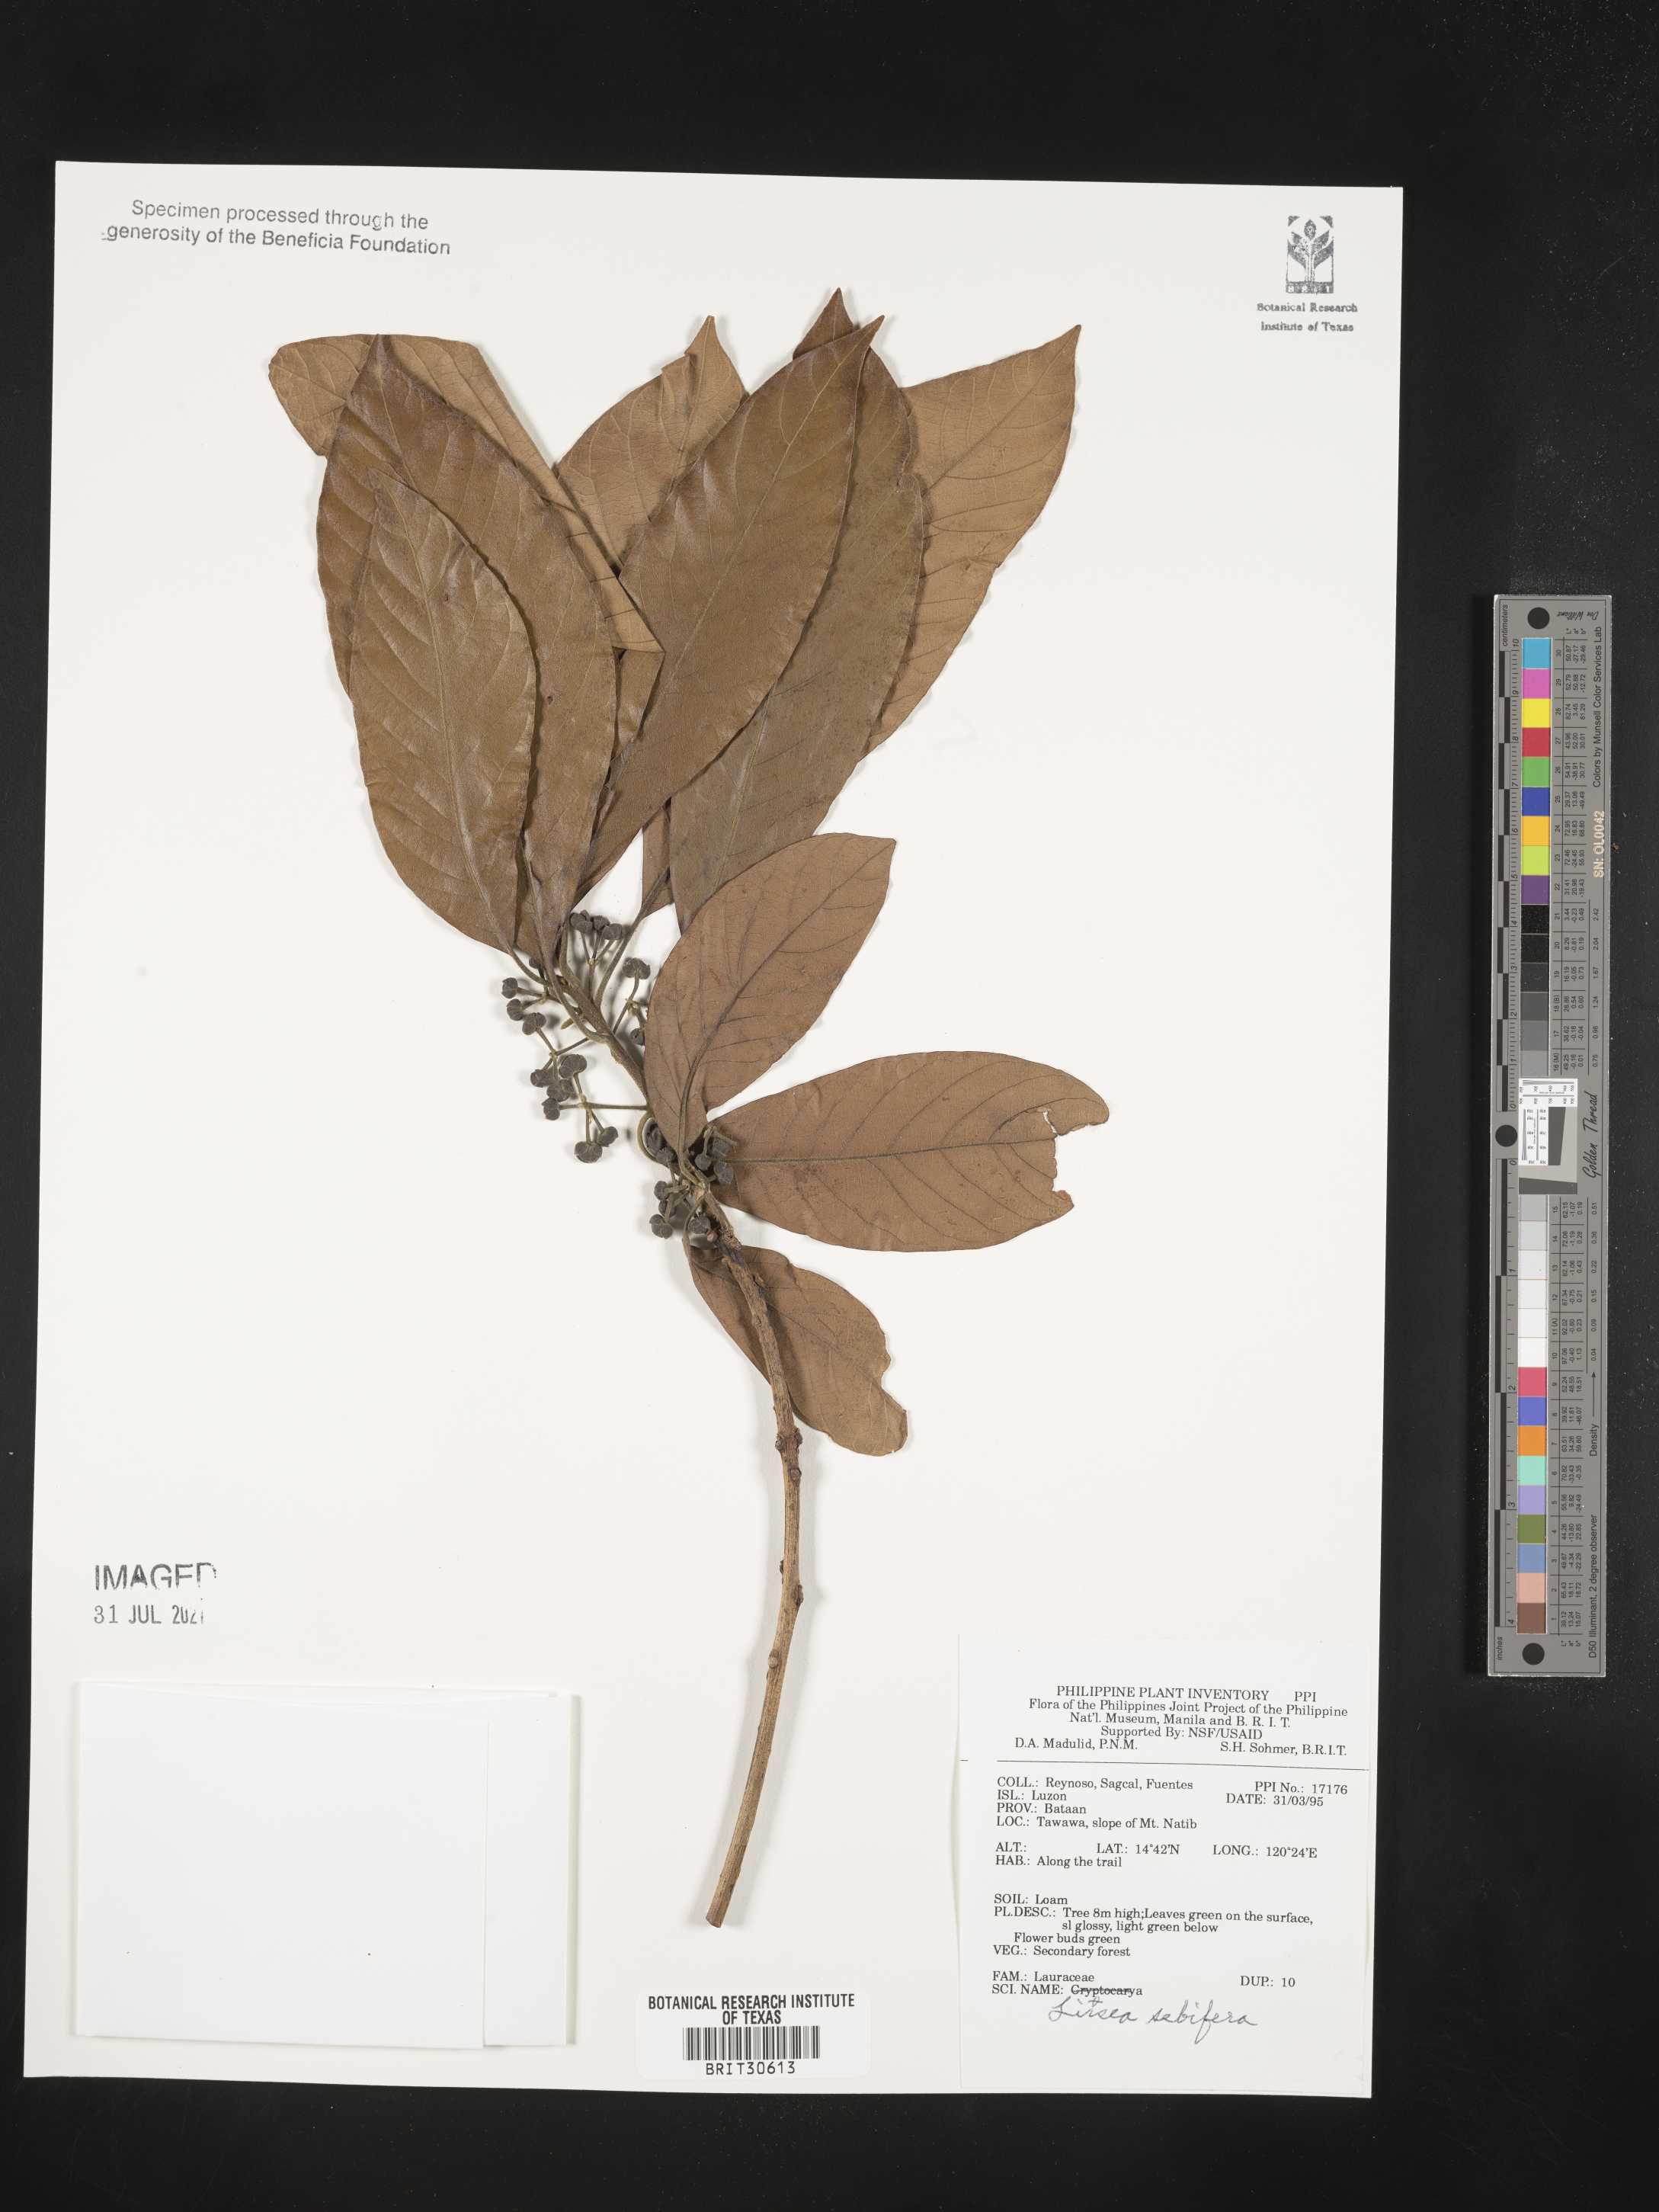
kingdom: Plantae
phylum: Tracheophyta
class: Magnoliopsida
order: Laurales
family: Lauraceae
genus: Litsea
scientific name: Litsea glutinosa
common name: Indian-laurel
